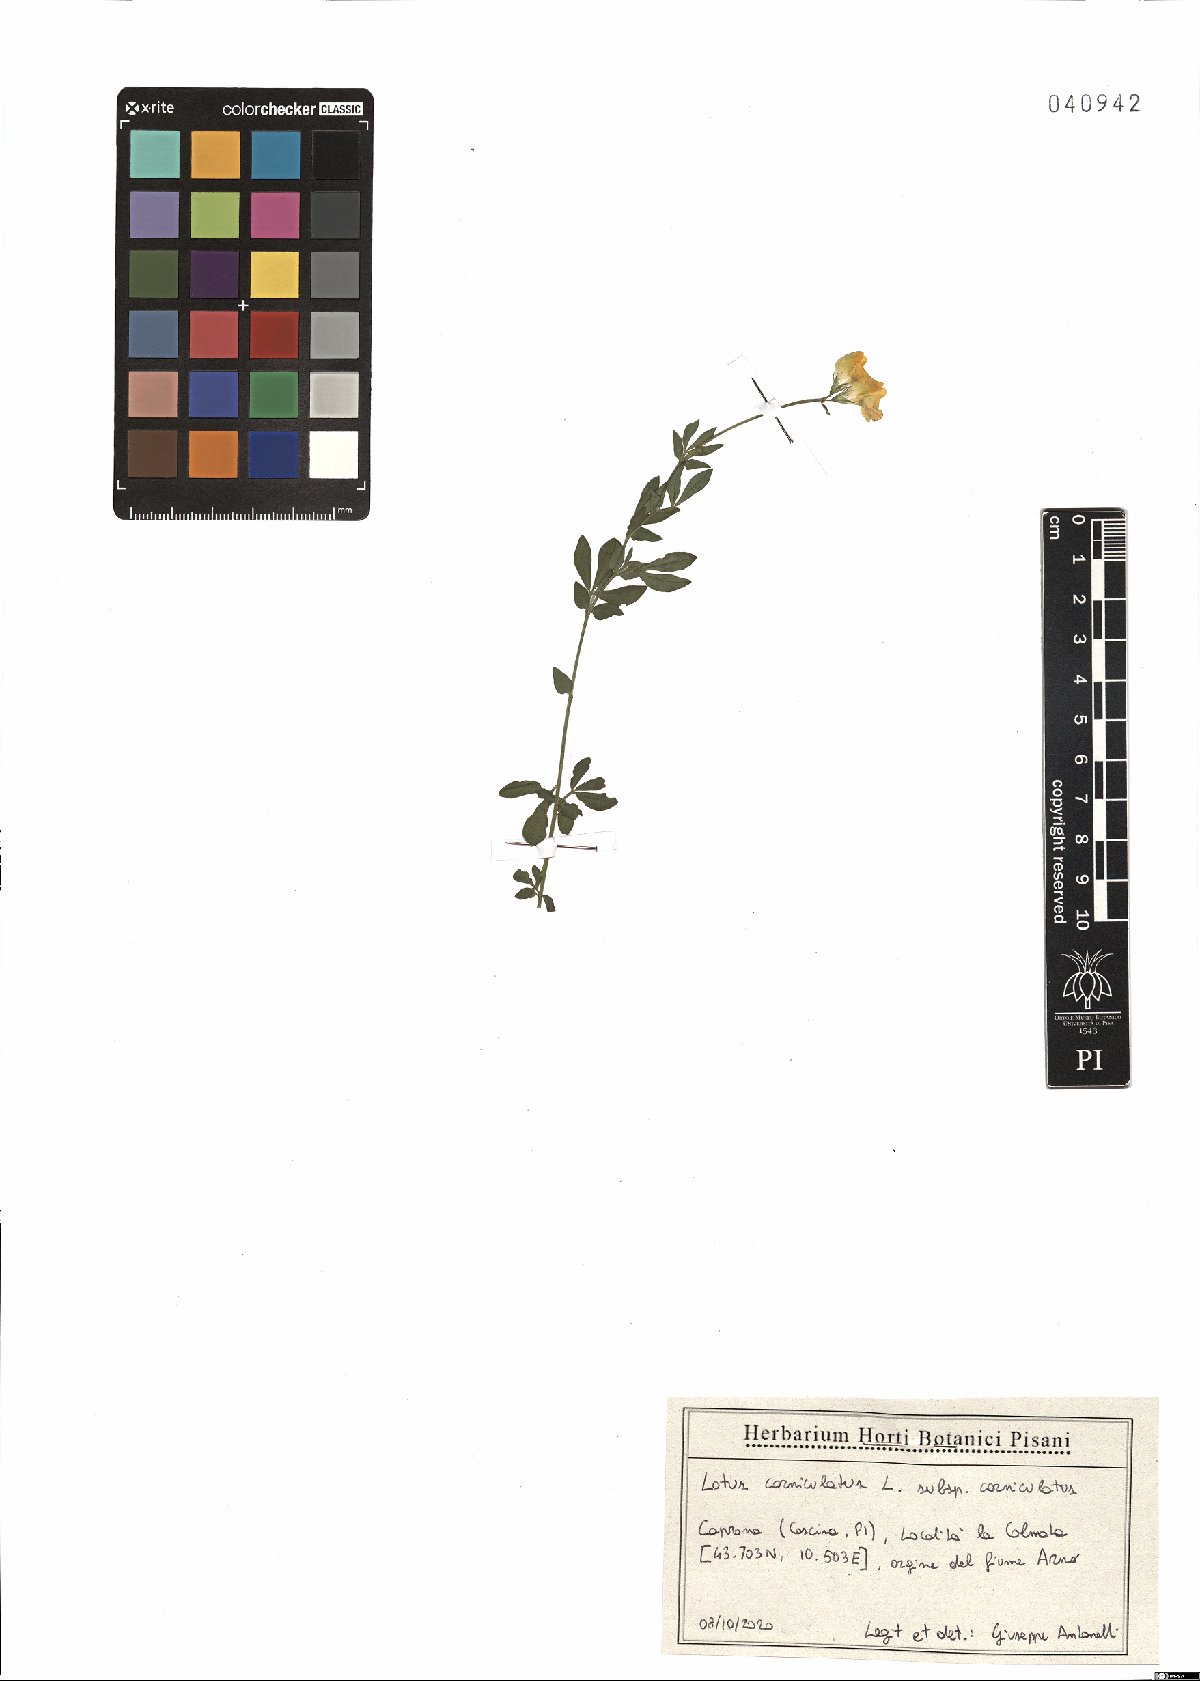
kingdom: Plantae
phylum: Tracheophyta
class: Magnoliopsida
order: Fabales
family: Fabaceae
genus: Lotus
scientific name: Lotus corniculatus
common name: Common bird's-foot-trefoil
